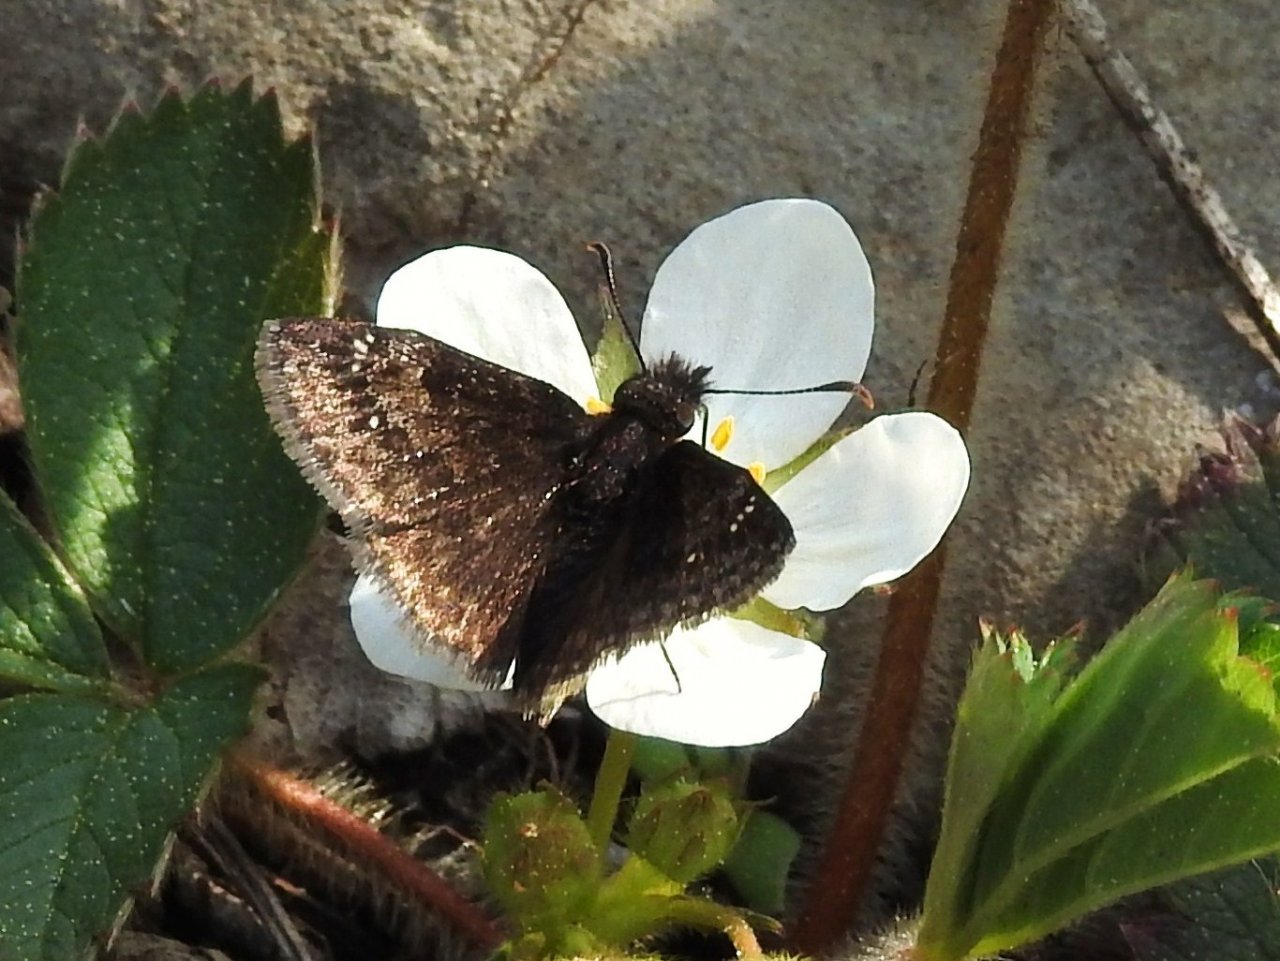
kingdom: Animalia
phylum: Arthropoda
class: Insecta
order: Lepidoptera
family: Hesperiidae
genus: Gesta
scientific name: Gesta
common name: Columbine Duskywing
